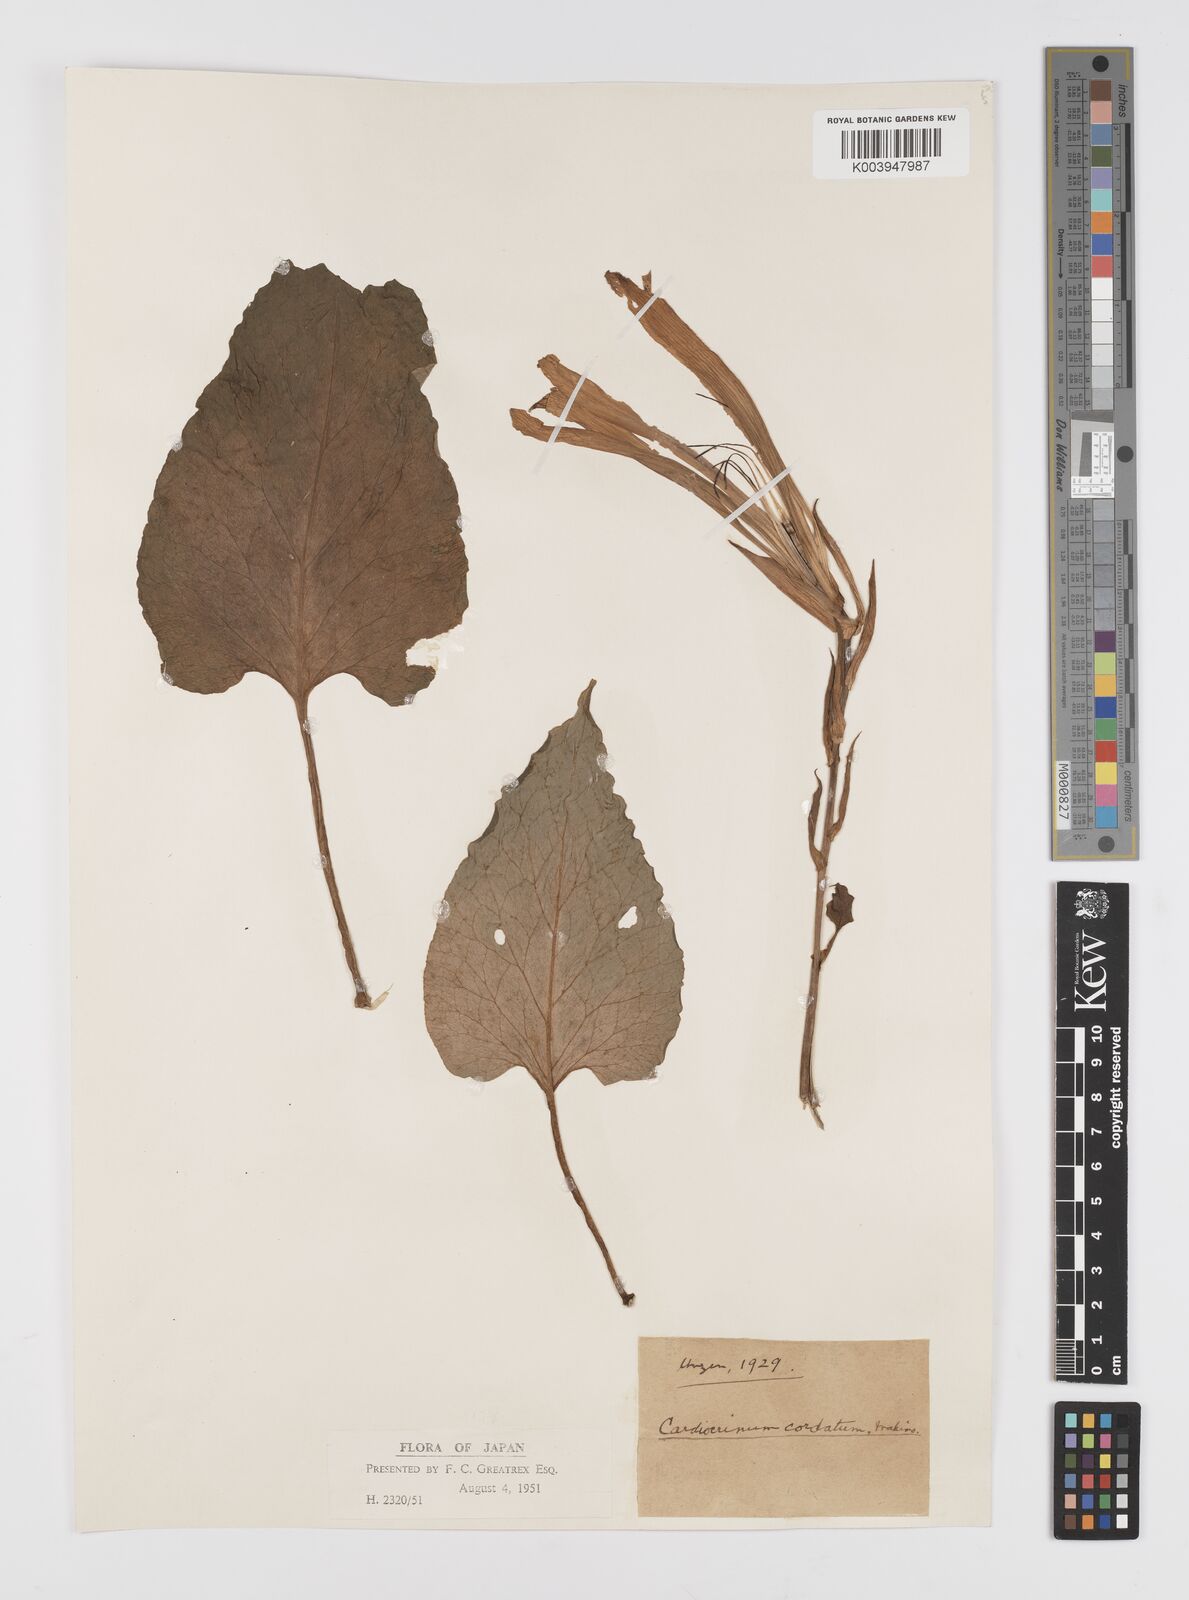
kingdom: Plantae
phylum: Tracheophyta
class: Liliopsida
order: Liliales
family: Liliaceae
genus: Cardiocrinum
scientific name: Cardiocrinum
